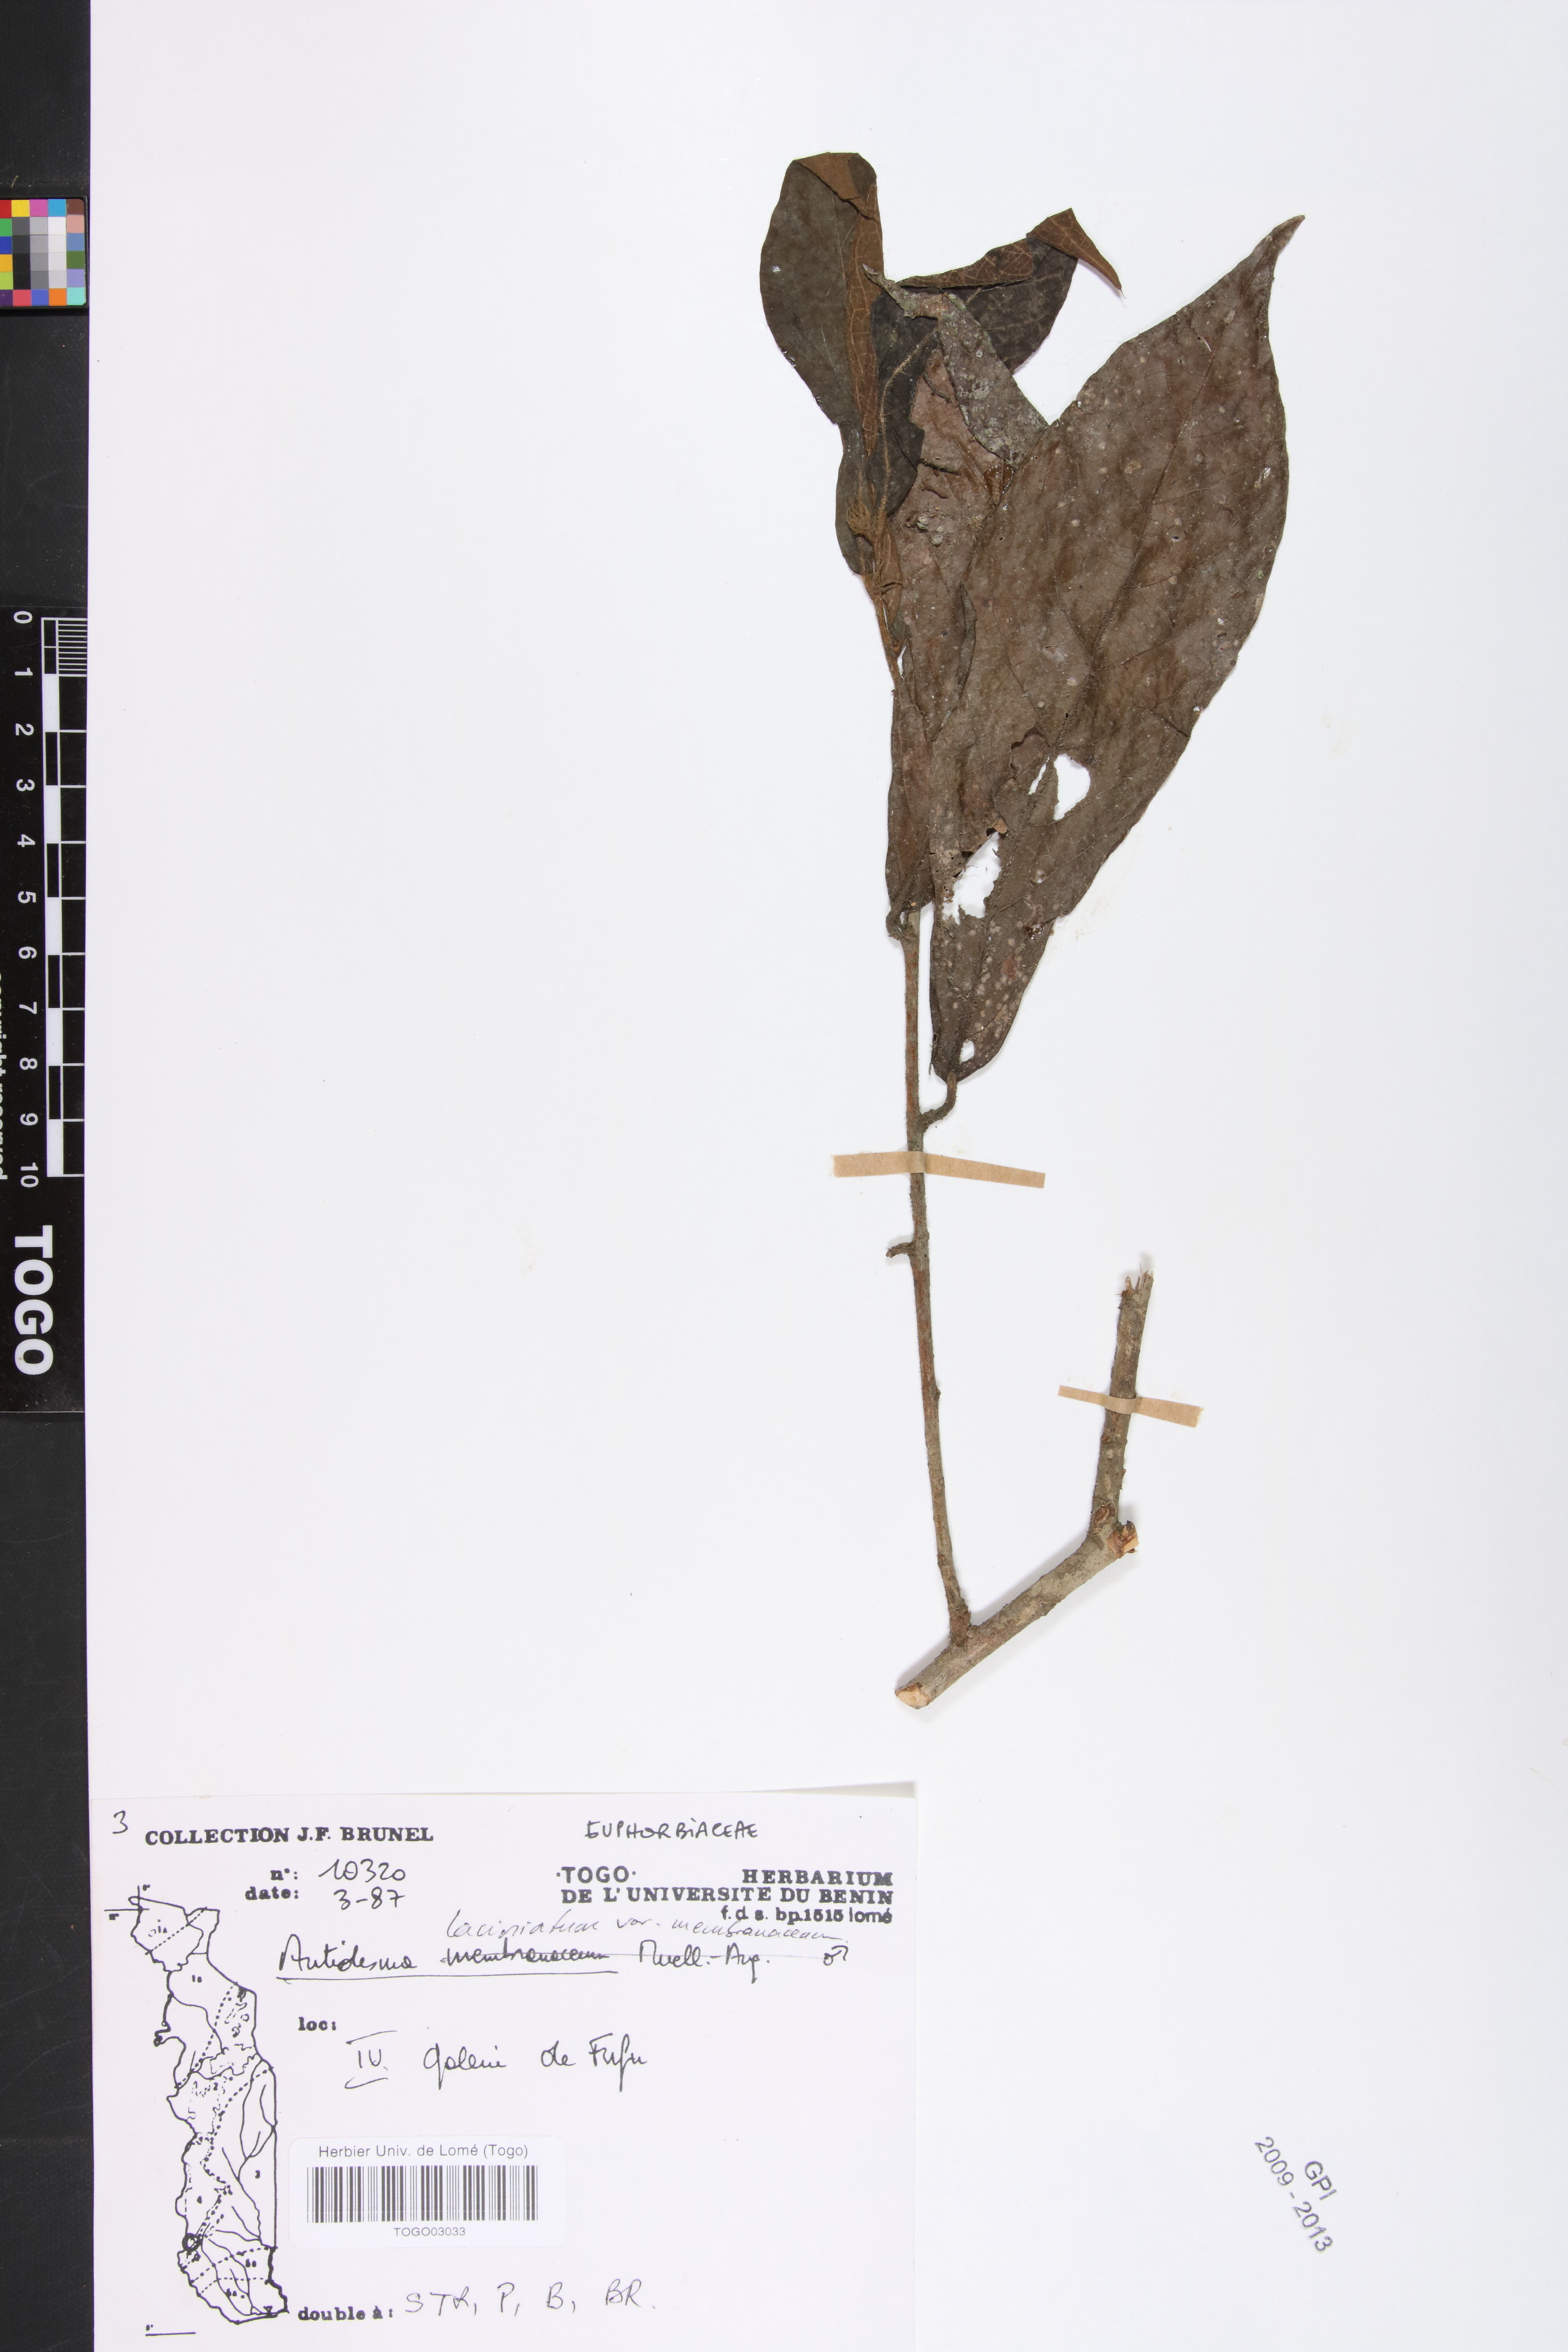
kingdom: Plantae
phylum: Tracheophyta
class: Magnoliopsida
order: Malpighiales
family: Phyllanthaceae
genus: Antidesma
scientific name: Antidesma laciniatum
